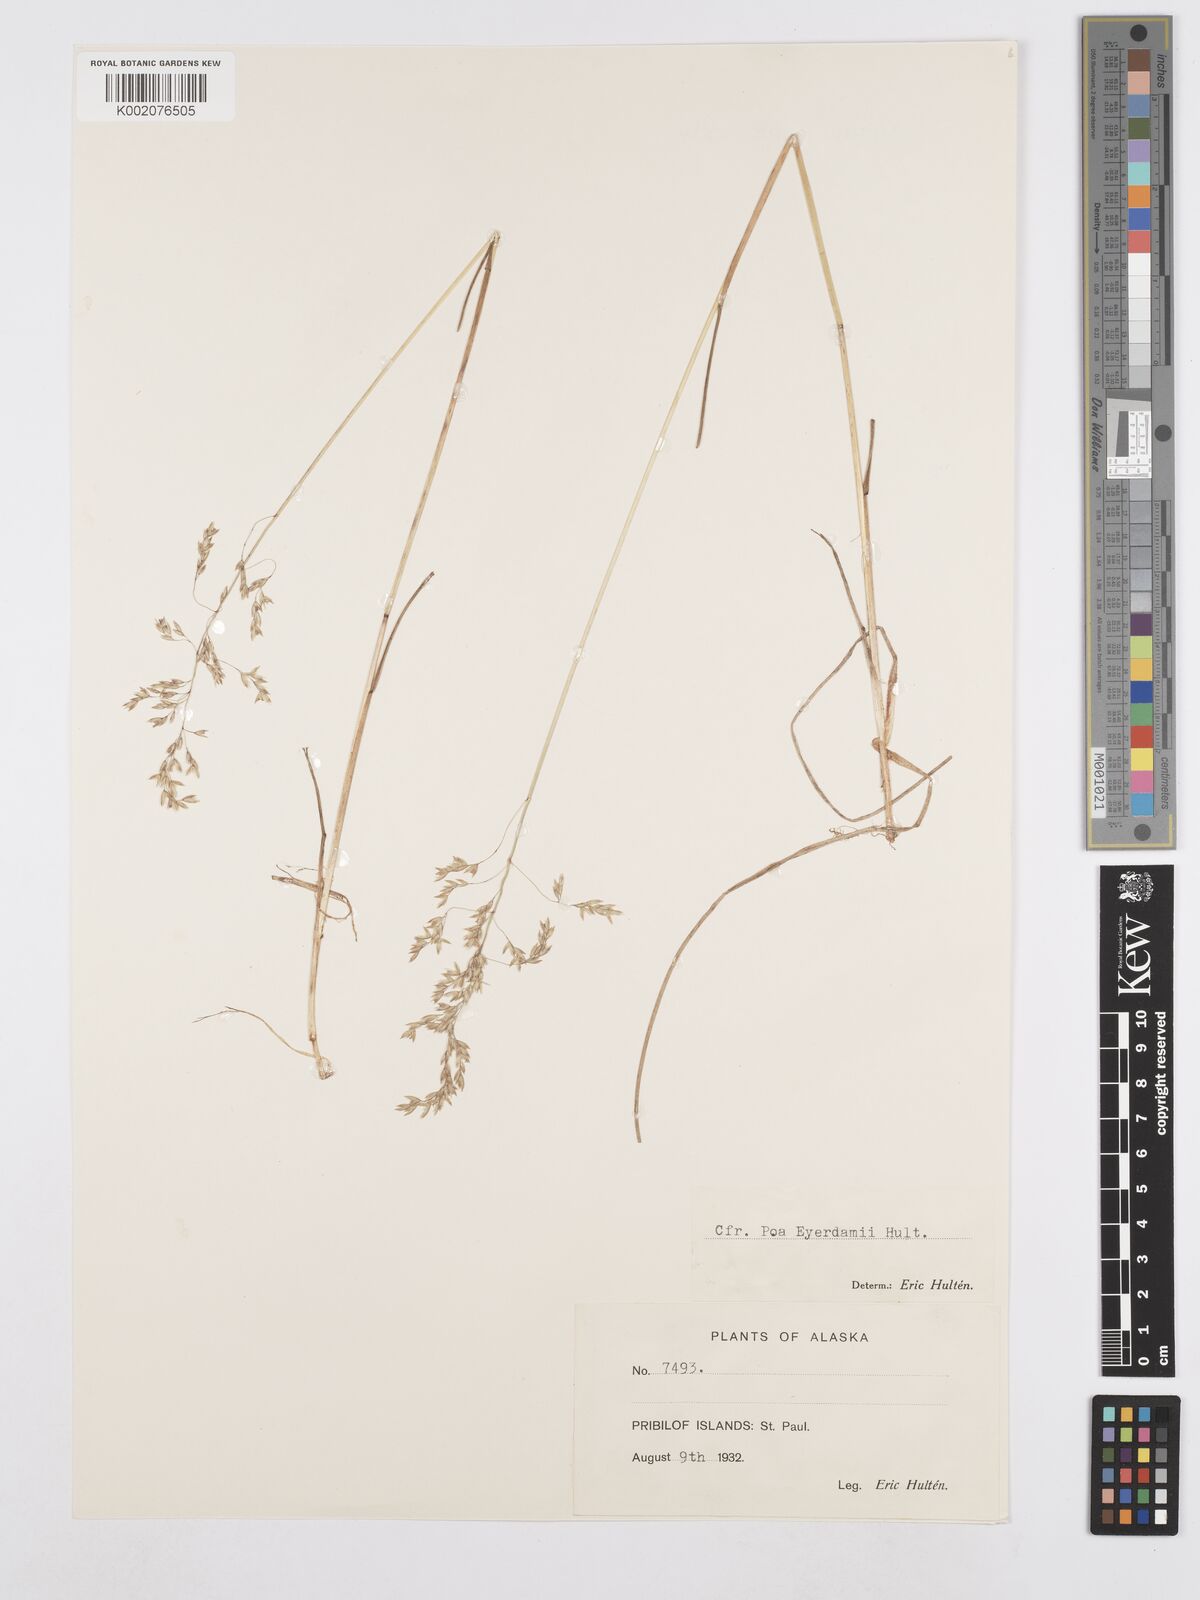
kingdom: Plantae
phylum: Tracheophyta
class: Liliopsida
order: Poales
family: Poaceae
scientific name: Poaceae
